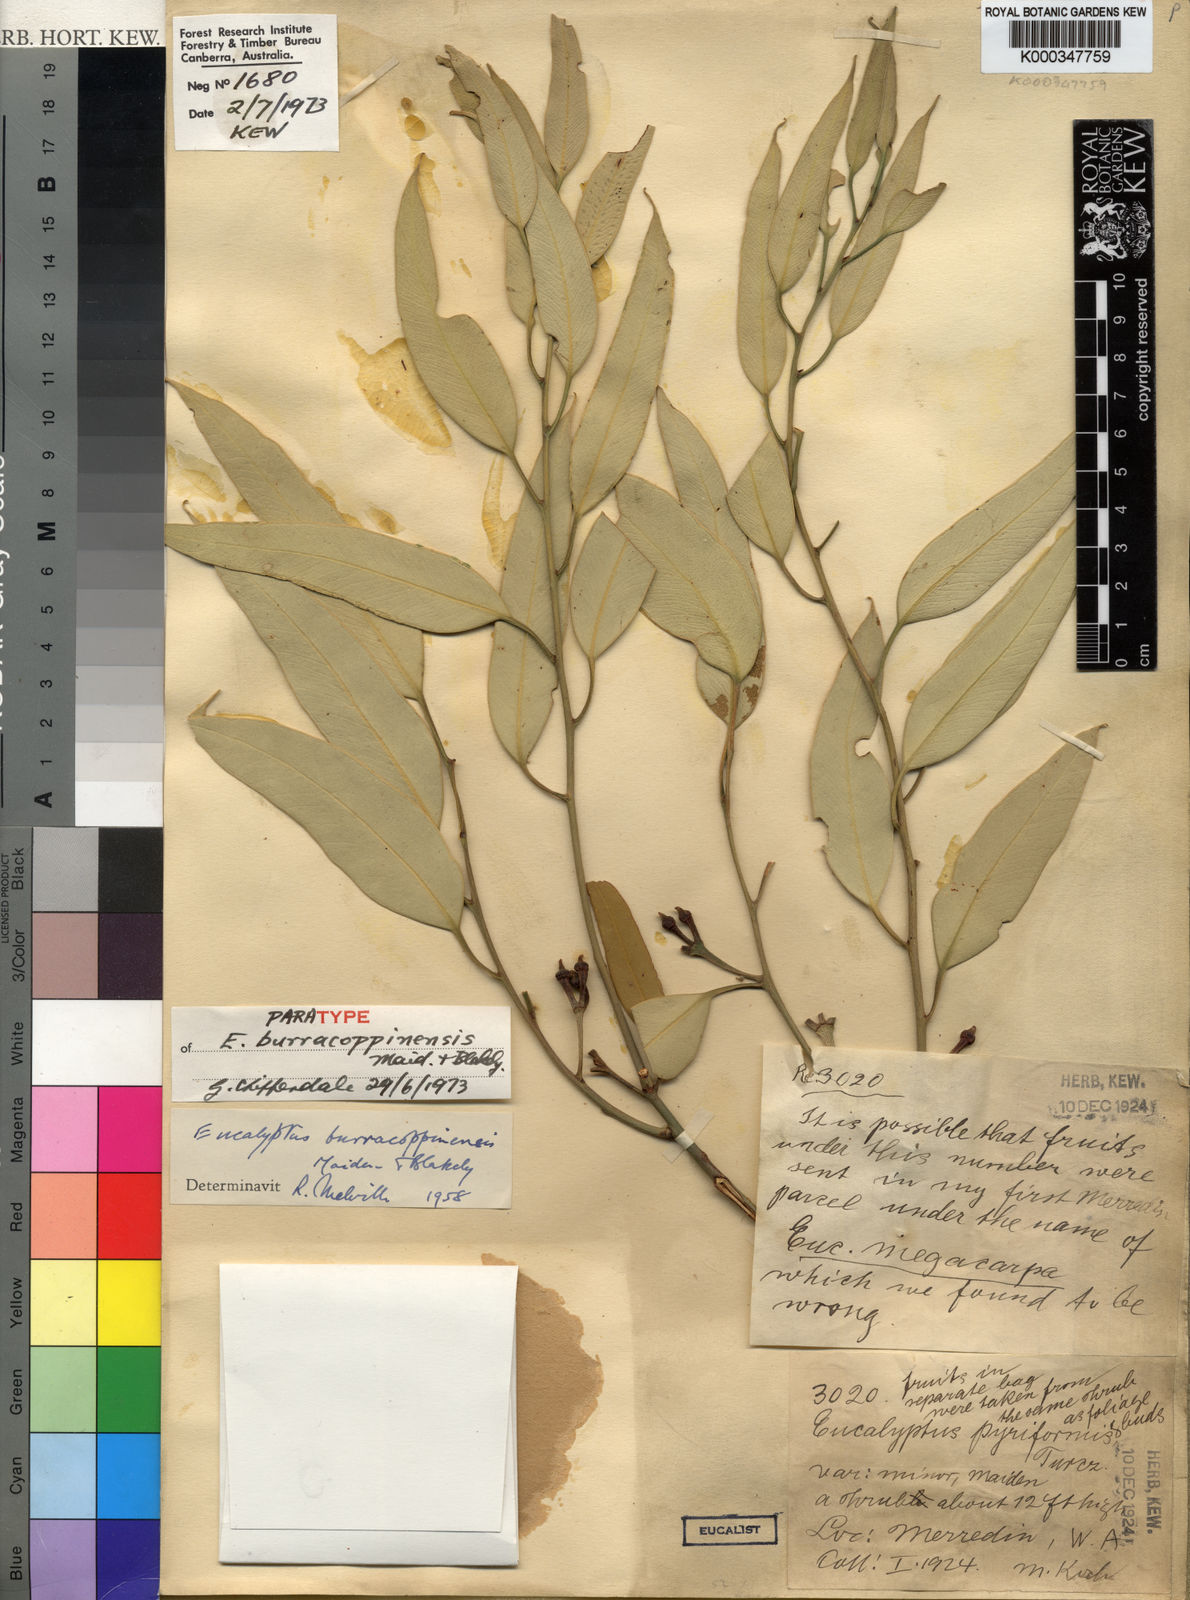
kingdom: Plantae
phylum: Tracheophyta
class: Magnoliopsida
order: Myrtales
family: Myrtaceae
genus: Eucalyptus
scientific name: Eucalyptus burracoppinensis
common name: Burracoppin mallee
